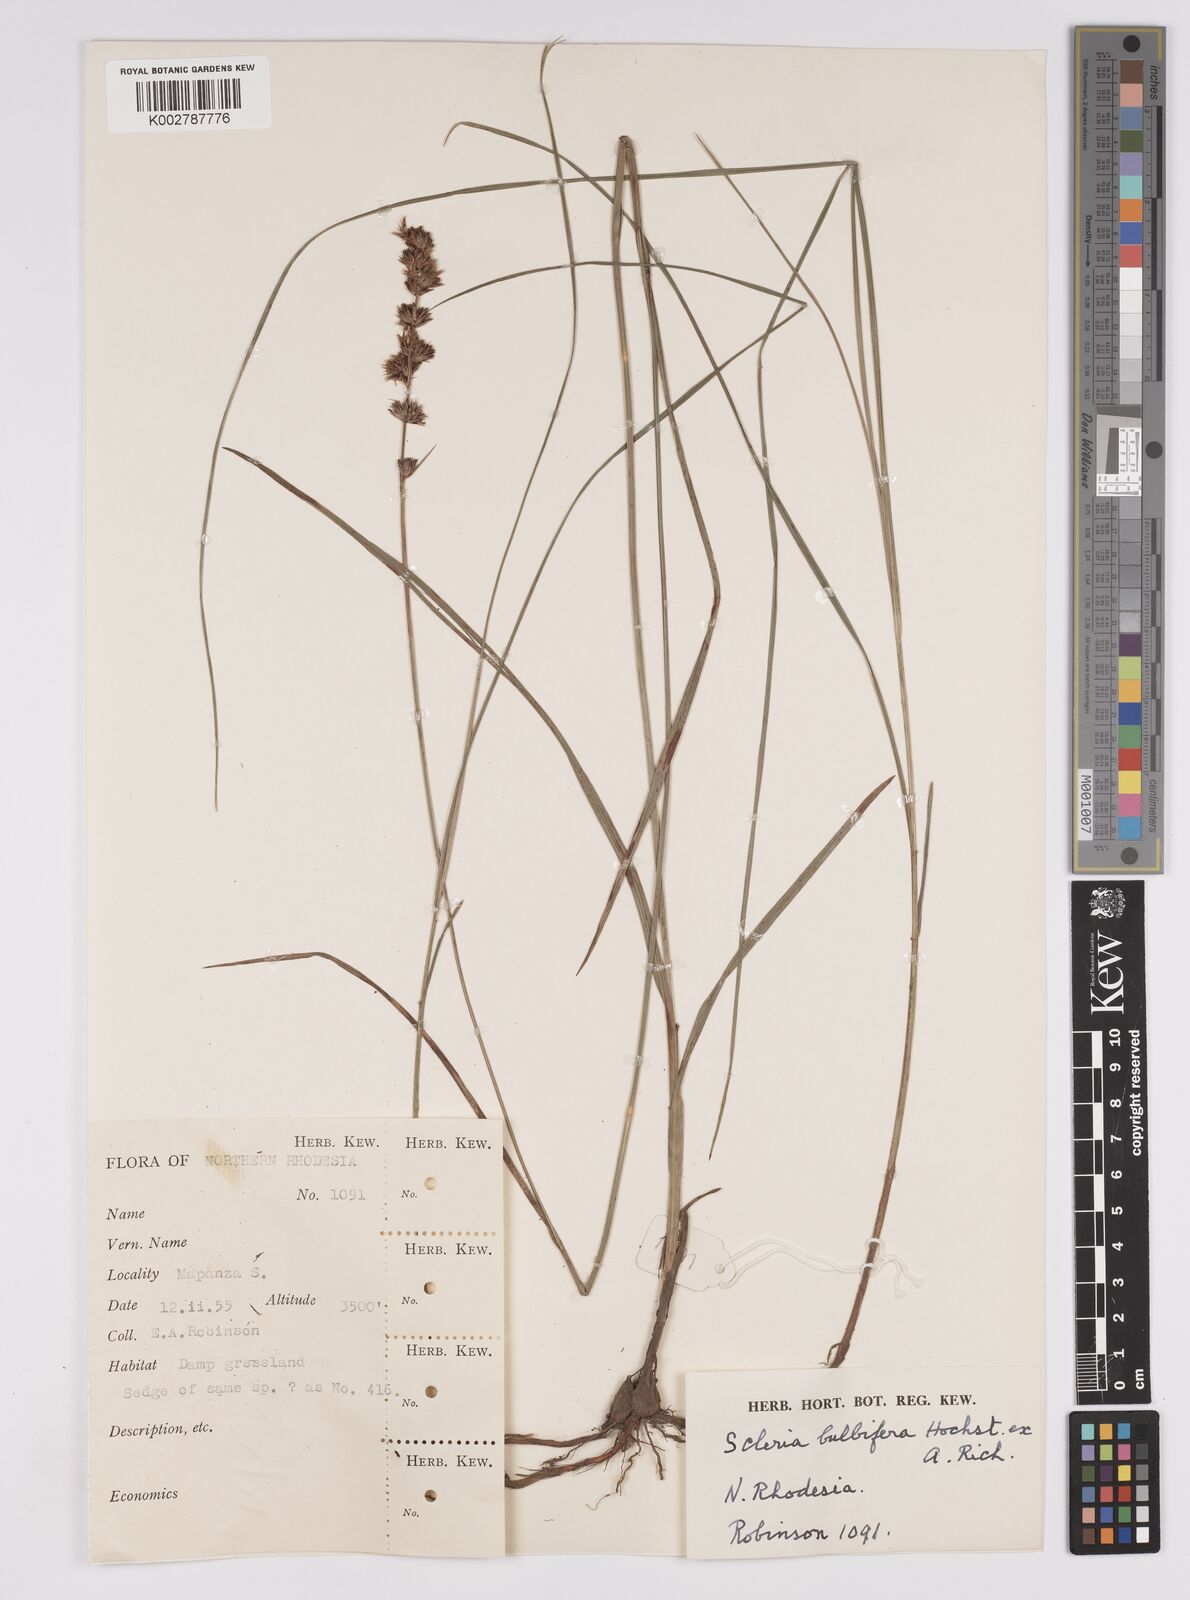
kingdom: Plantae
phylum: Tracheophyta
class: Liliopsida
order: Poales
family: Cyperaceae
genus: Scleria
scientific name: Scleria bulbifera
